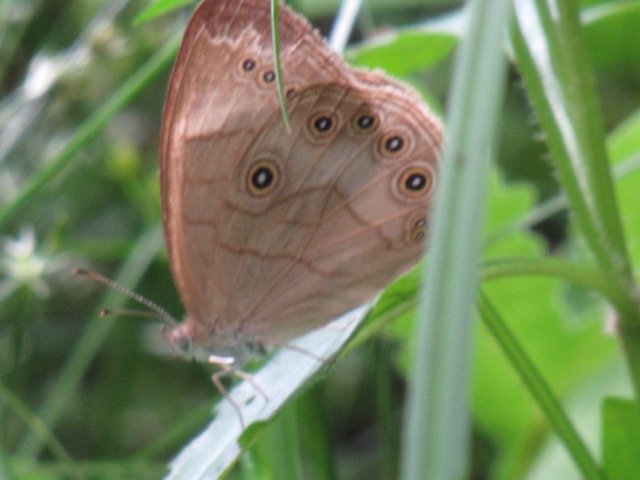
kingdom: Animalia
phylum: Arthropoda
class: Insecta
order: Lepidoptera
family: Nymphalidae
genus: Lethe
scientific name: Lethe eurydice
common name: Appalachian Eyed Brown
